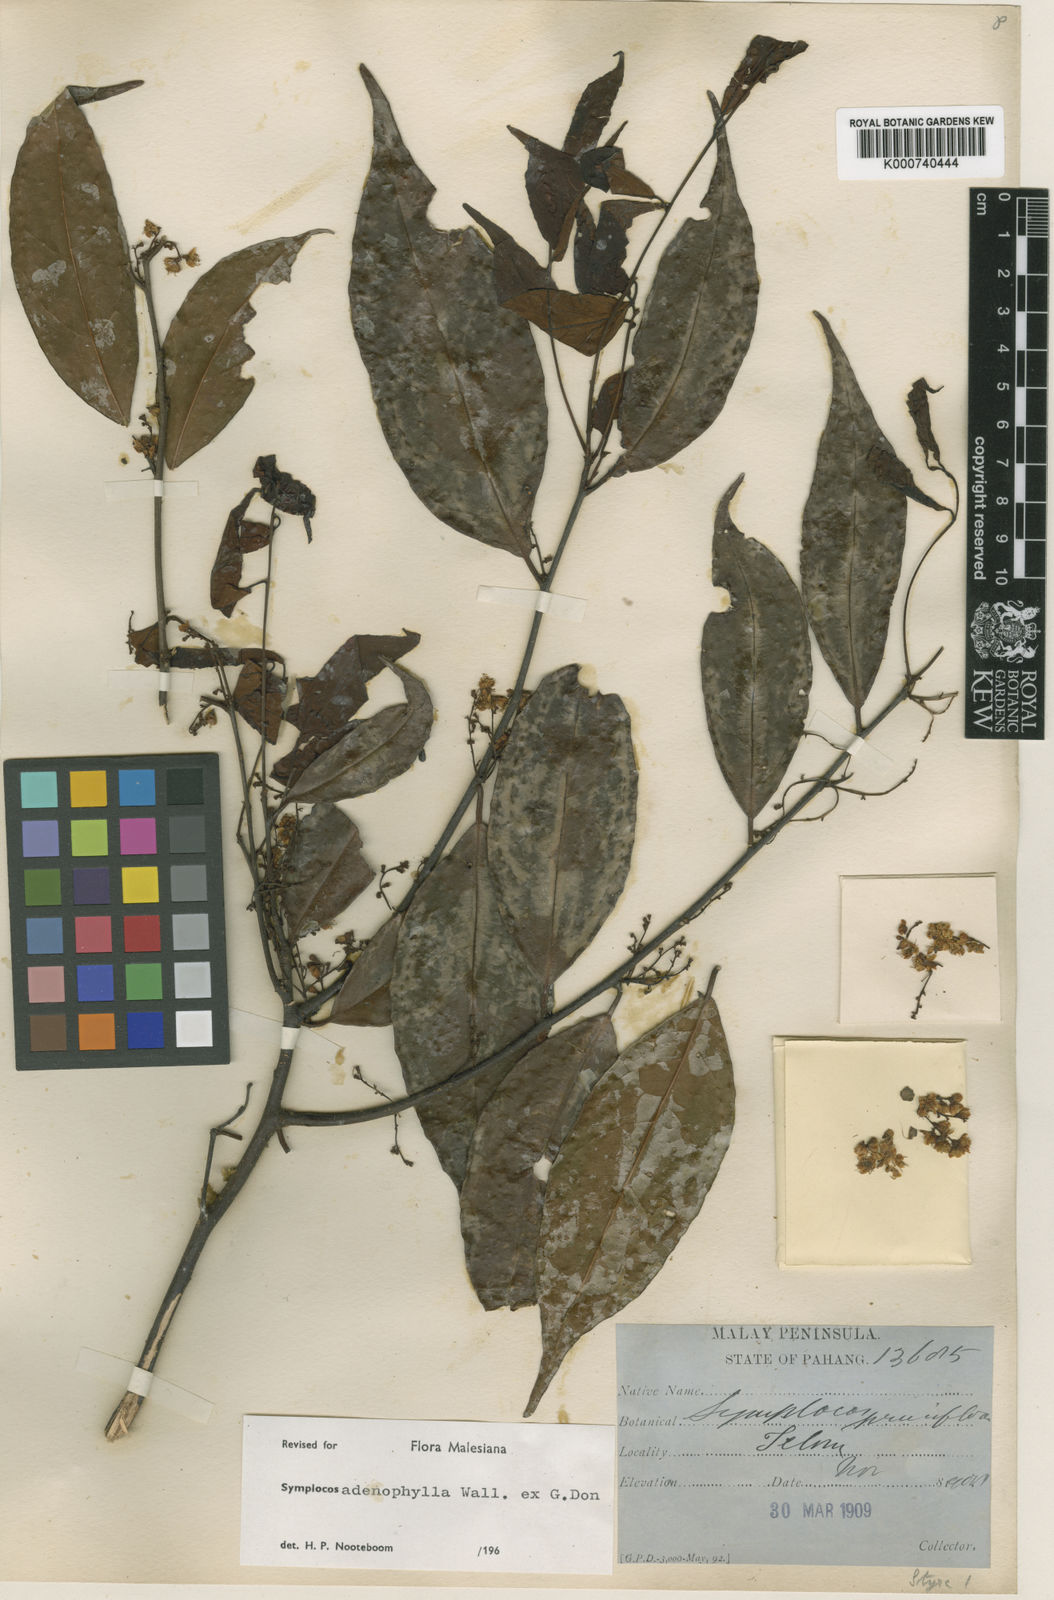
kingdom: Plantae
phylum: Tracheophyta
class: Magnoliopsida
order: Ericales
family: Symplocaceae
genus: Symplocos
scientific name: Symplocos
